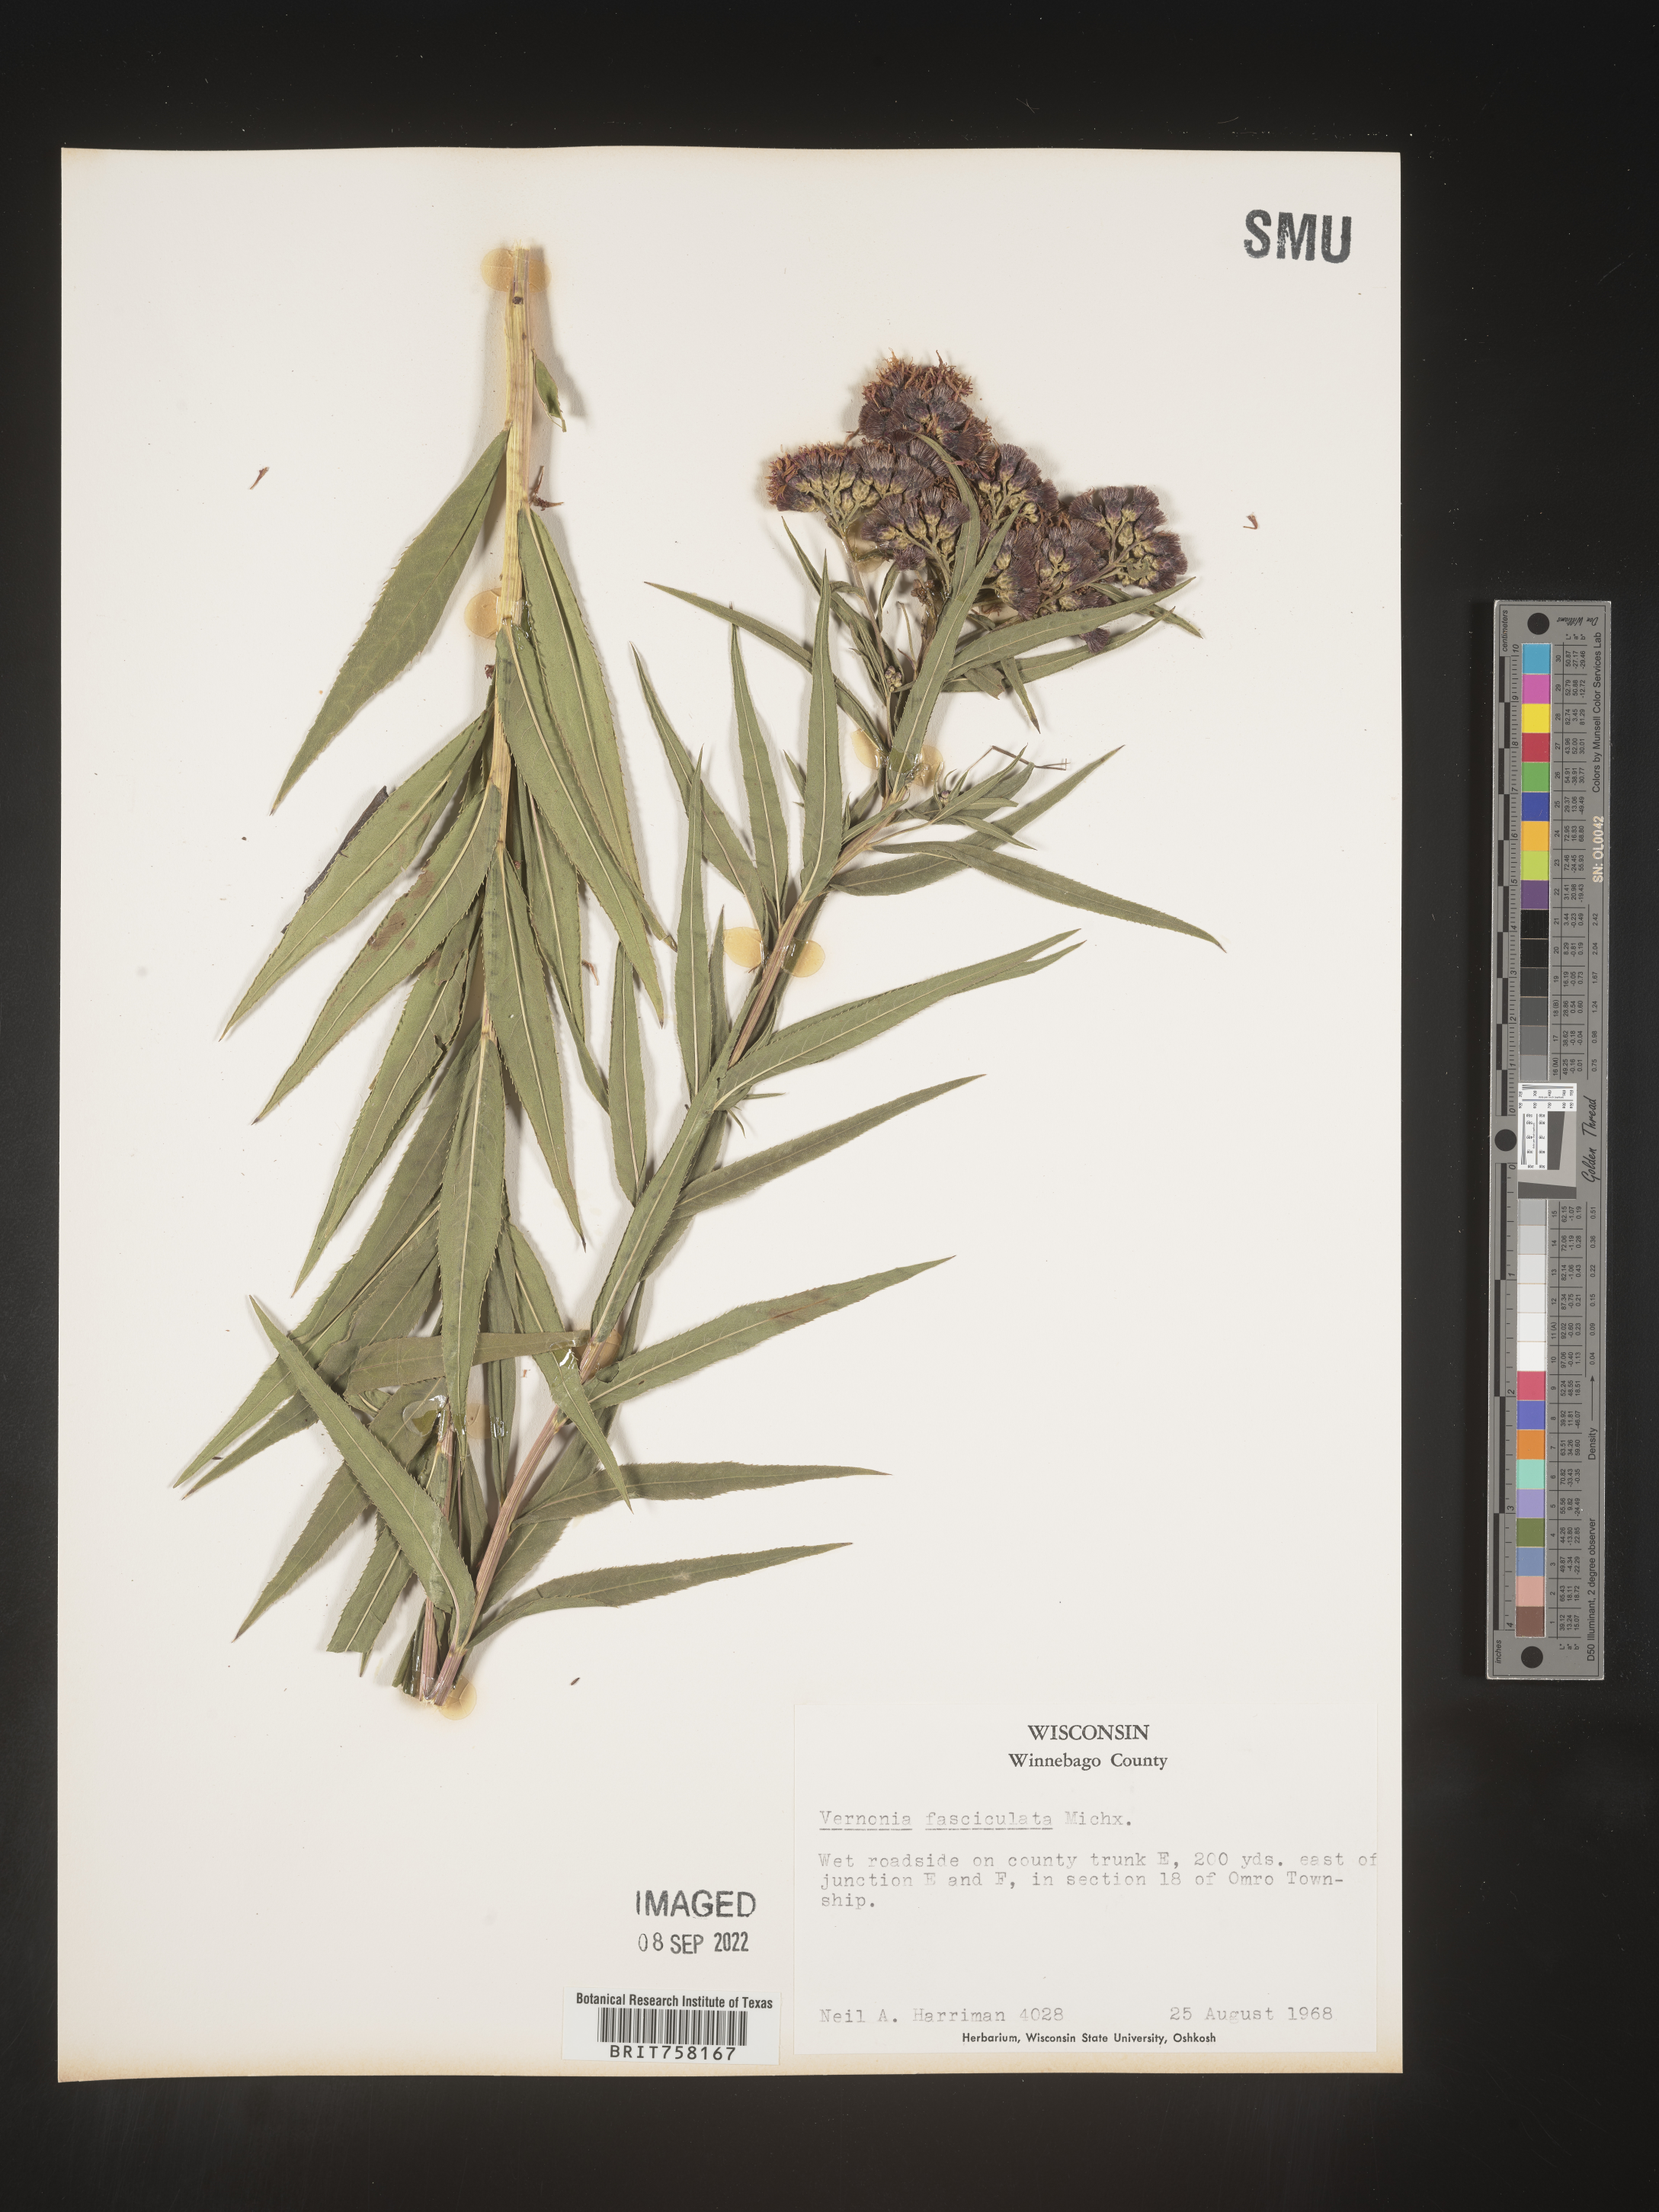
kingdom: Plantae
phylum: Tracheophyta
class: Magnoliopsida
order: Asterales
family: Asteraceae
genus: Vernonia
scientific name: Vernonia fasciculata
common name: Fascicled ironweed
